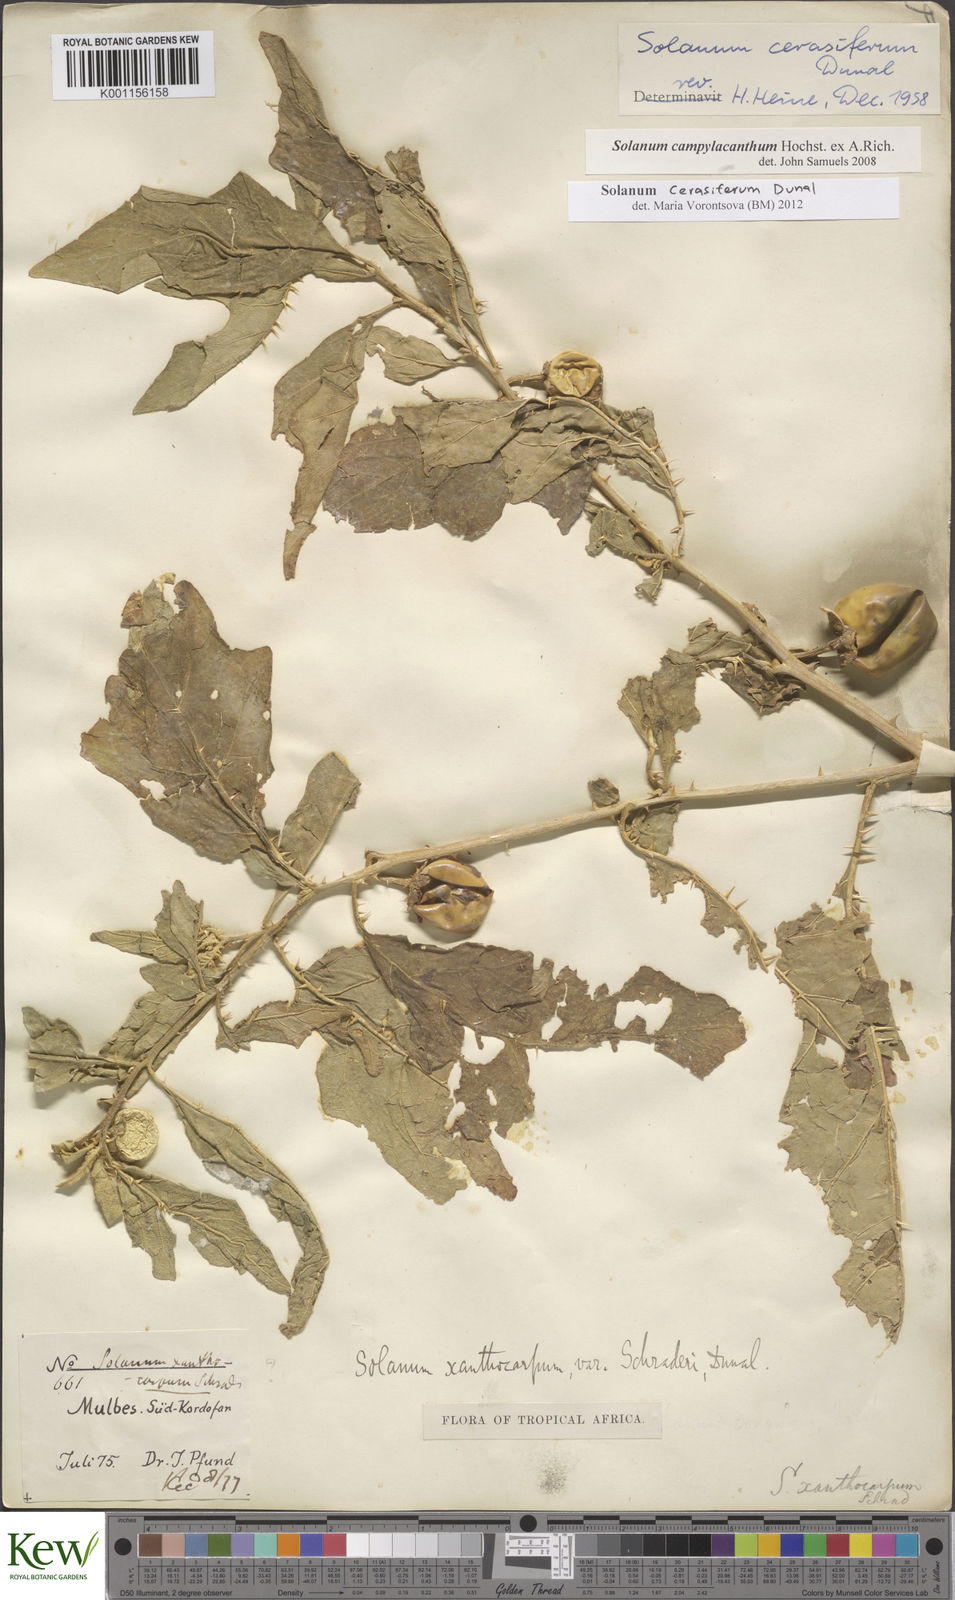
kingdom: Plantae
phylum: Tracheophyta
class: Magnoliopsida
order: Solanales
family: Solanaceae
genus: Solanum
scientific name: Solanum cerasiferum
